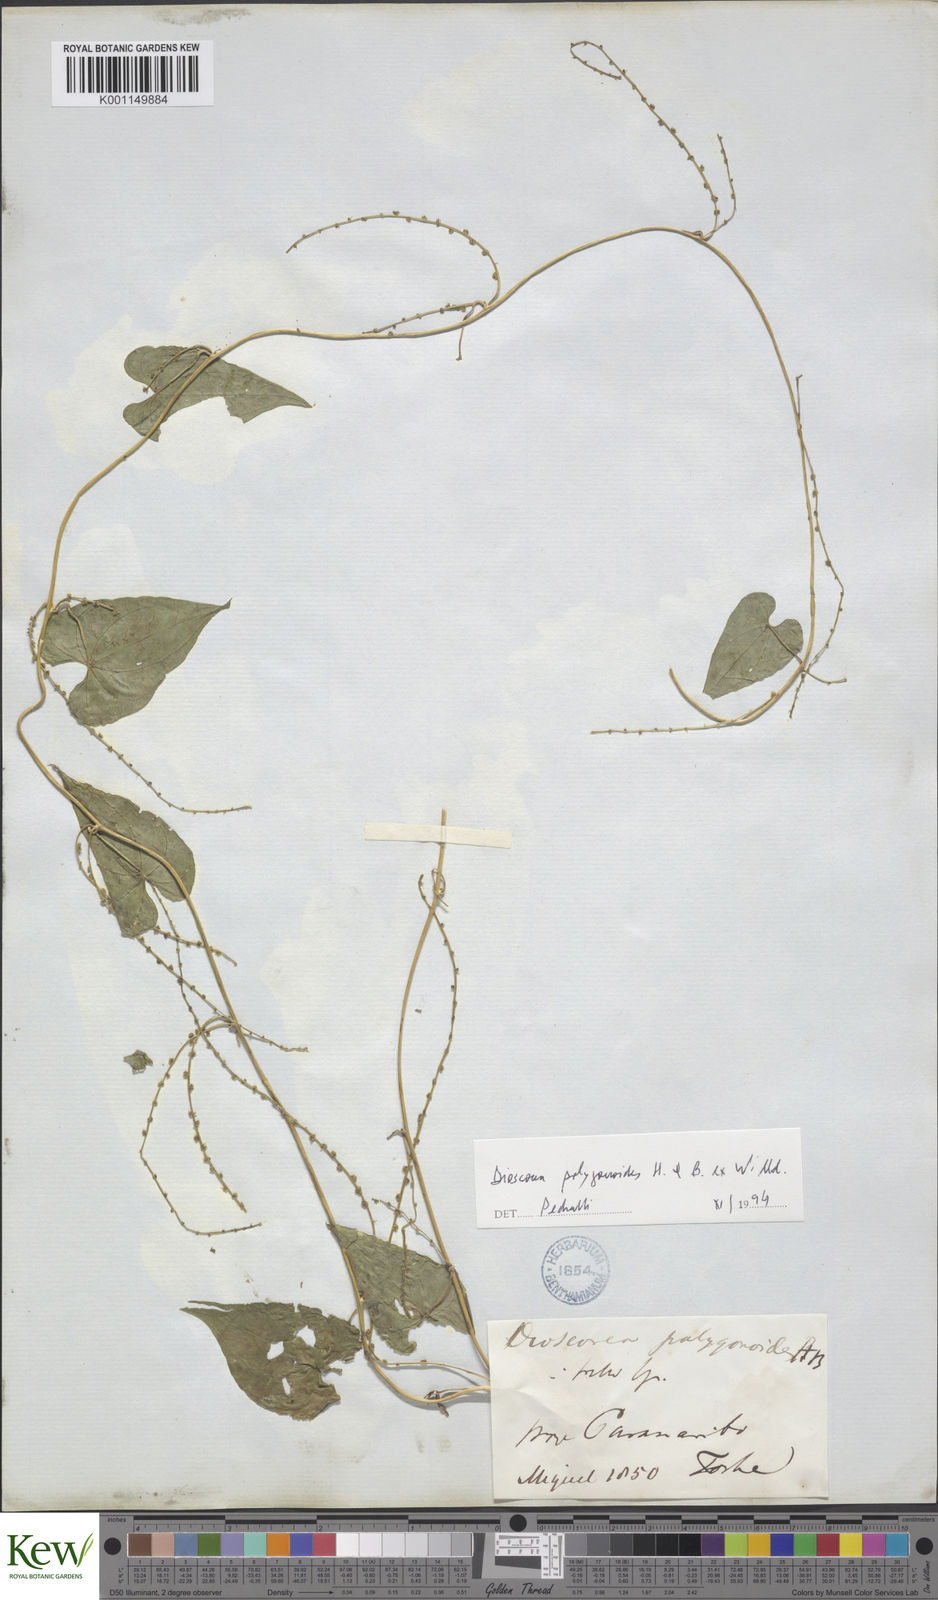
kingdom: Plantae
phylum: Tracheophyta
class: Liliopsida
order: Dioscoreales
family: Dioscoreaceae
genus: Dioscorea
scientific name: Dioscorea polygonoides
